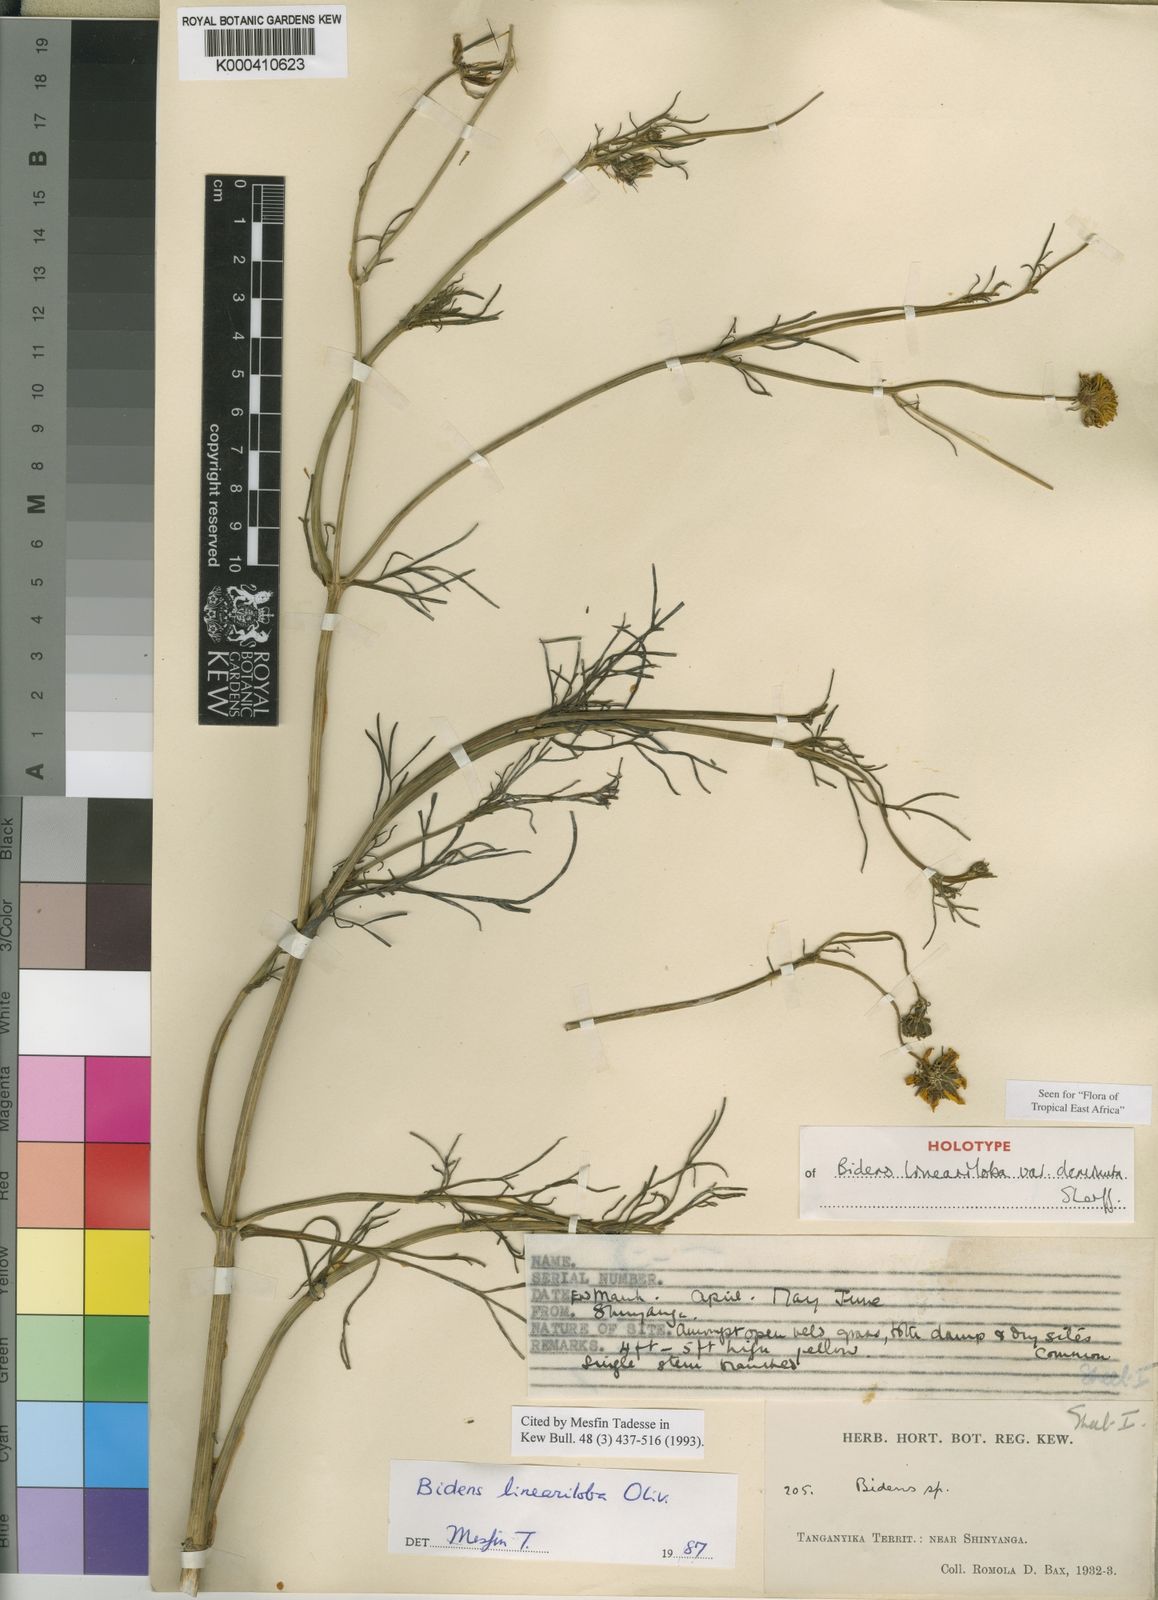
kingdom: Plantae
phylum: Tracheophyta
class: Magnoliopsida
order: Asterales
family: Asteraceae
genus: Bidens
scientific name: Bidens lineariloba
